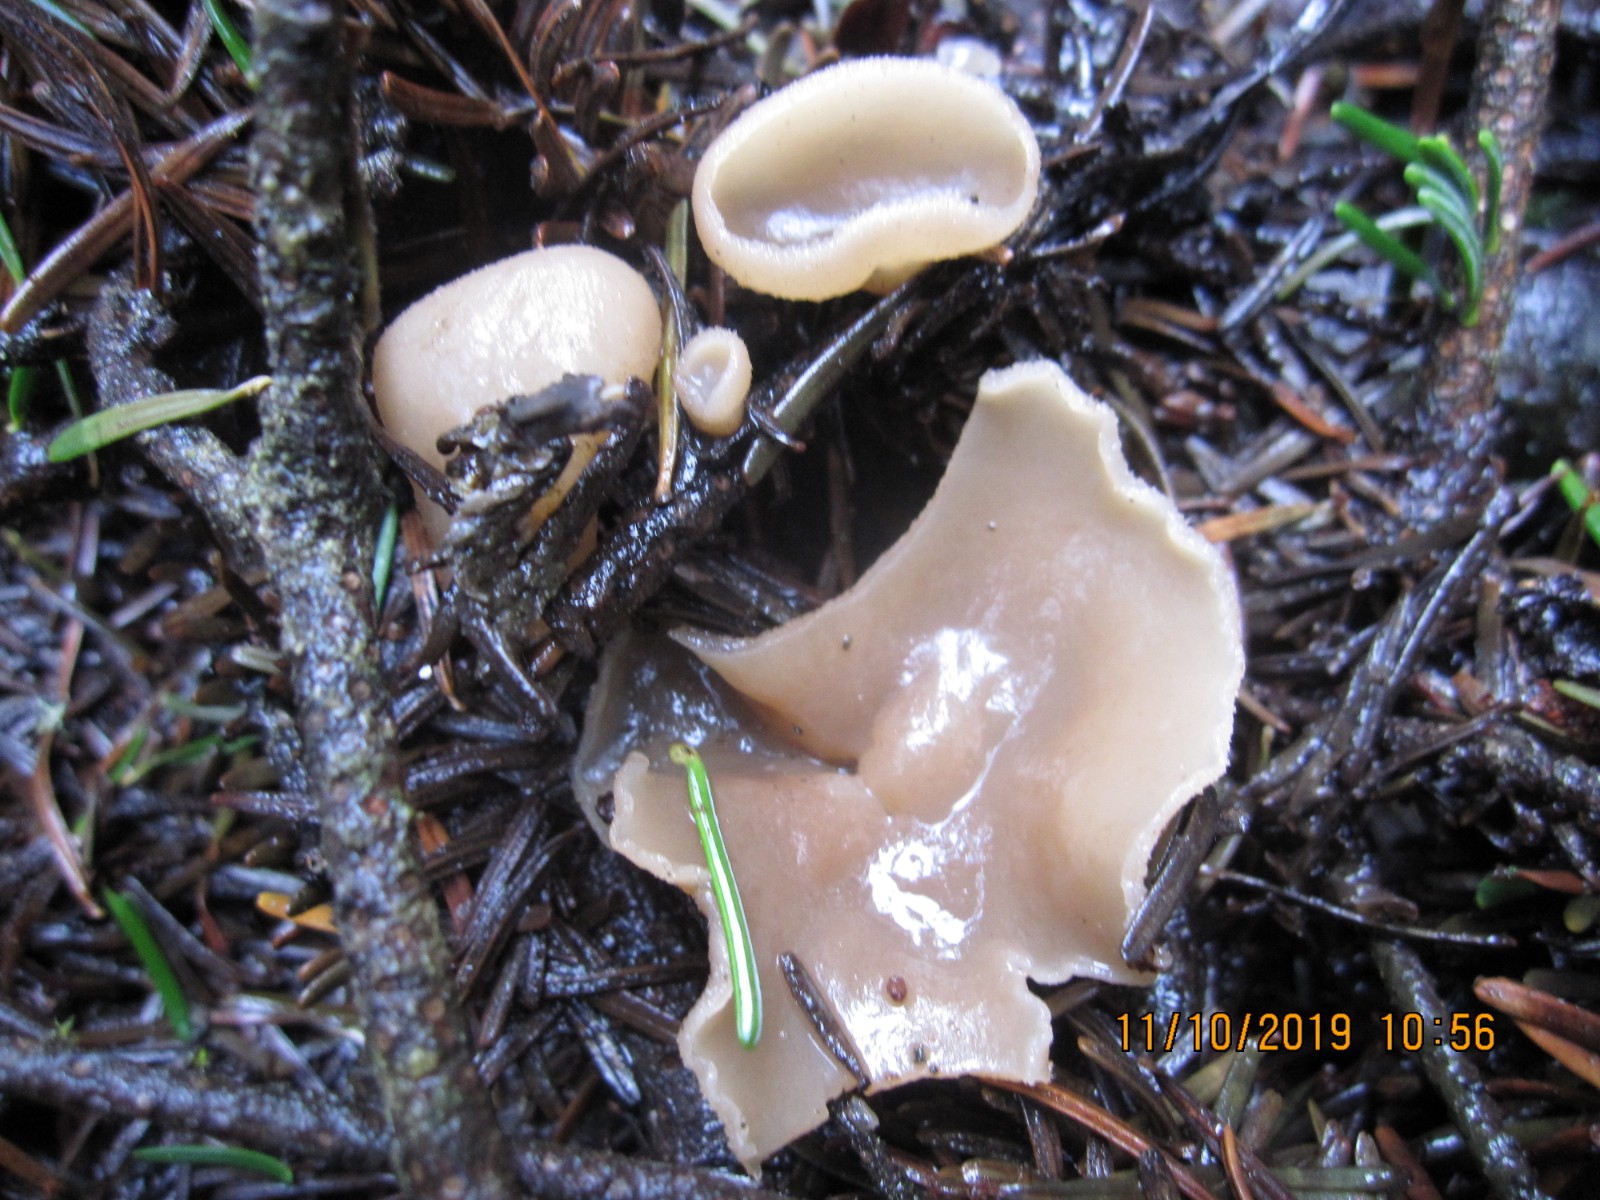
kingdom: Fungi
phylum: Ascomycota
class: Pezizomycetes
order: Pezizales
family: Pezizaceae
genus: Peziza
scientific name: Peziza
